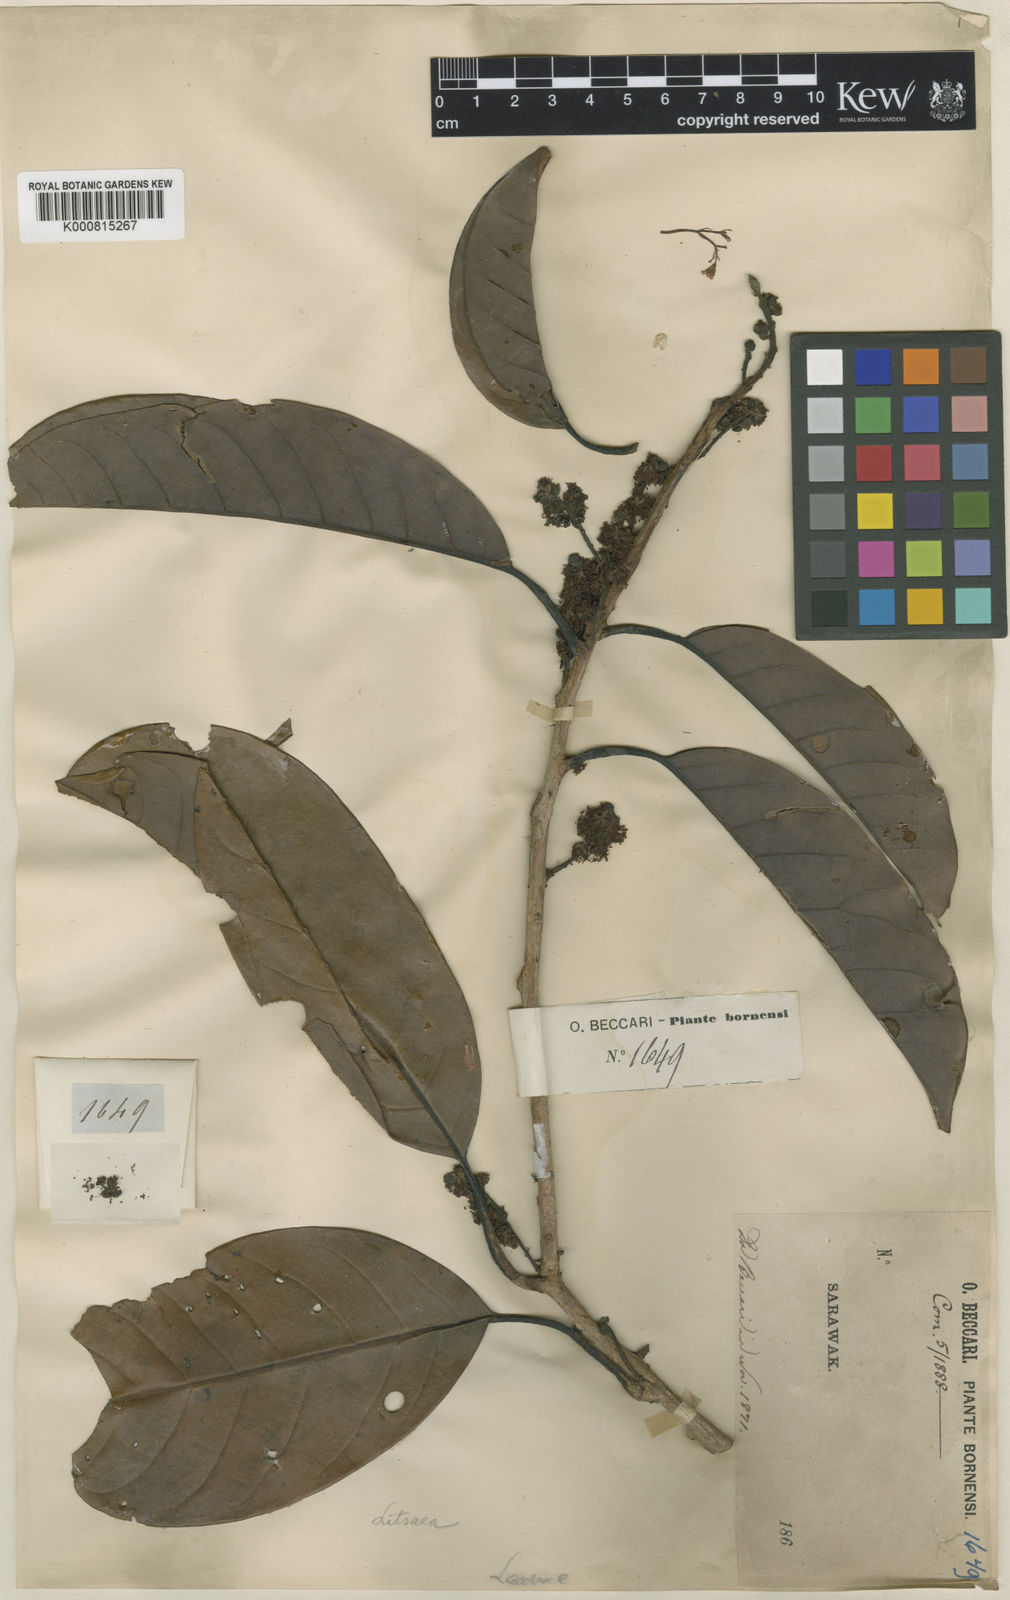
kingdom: Plantae
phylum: Tracheophyta
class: Magnoliopsida
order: Laurales
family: Lauraceae
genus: Litsea
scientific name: Litsea machilifolia
